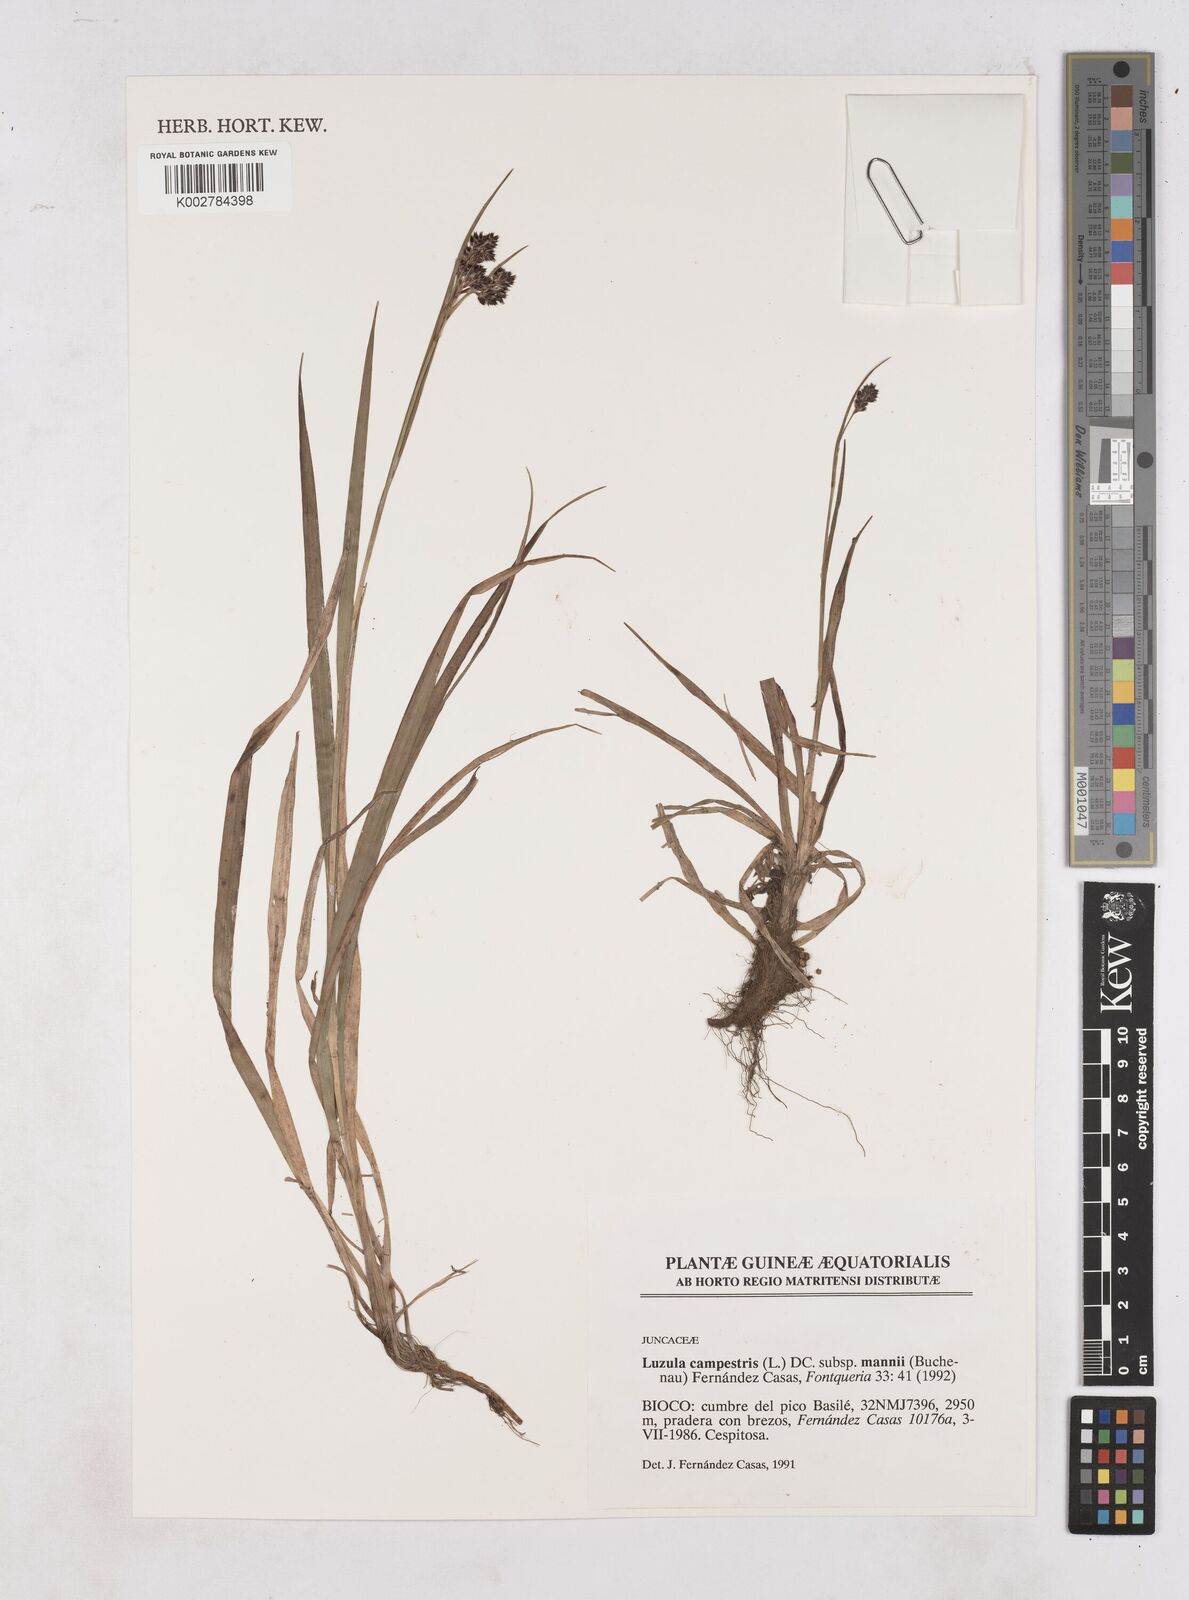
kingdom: Plantae
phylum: Tracheophyta
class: Liliopsida
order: Poales
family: Juncaceae
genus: Luzula
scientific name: Luzula campestris
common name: Field wood-rush
